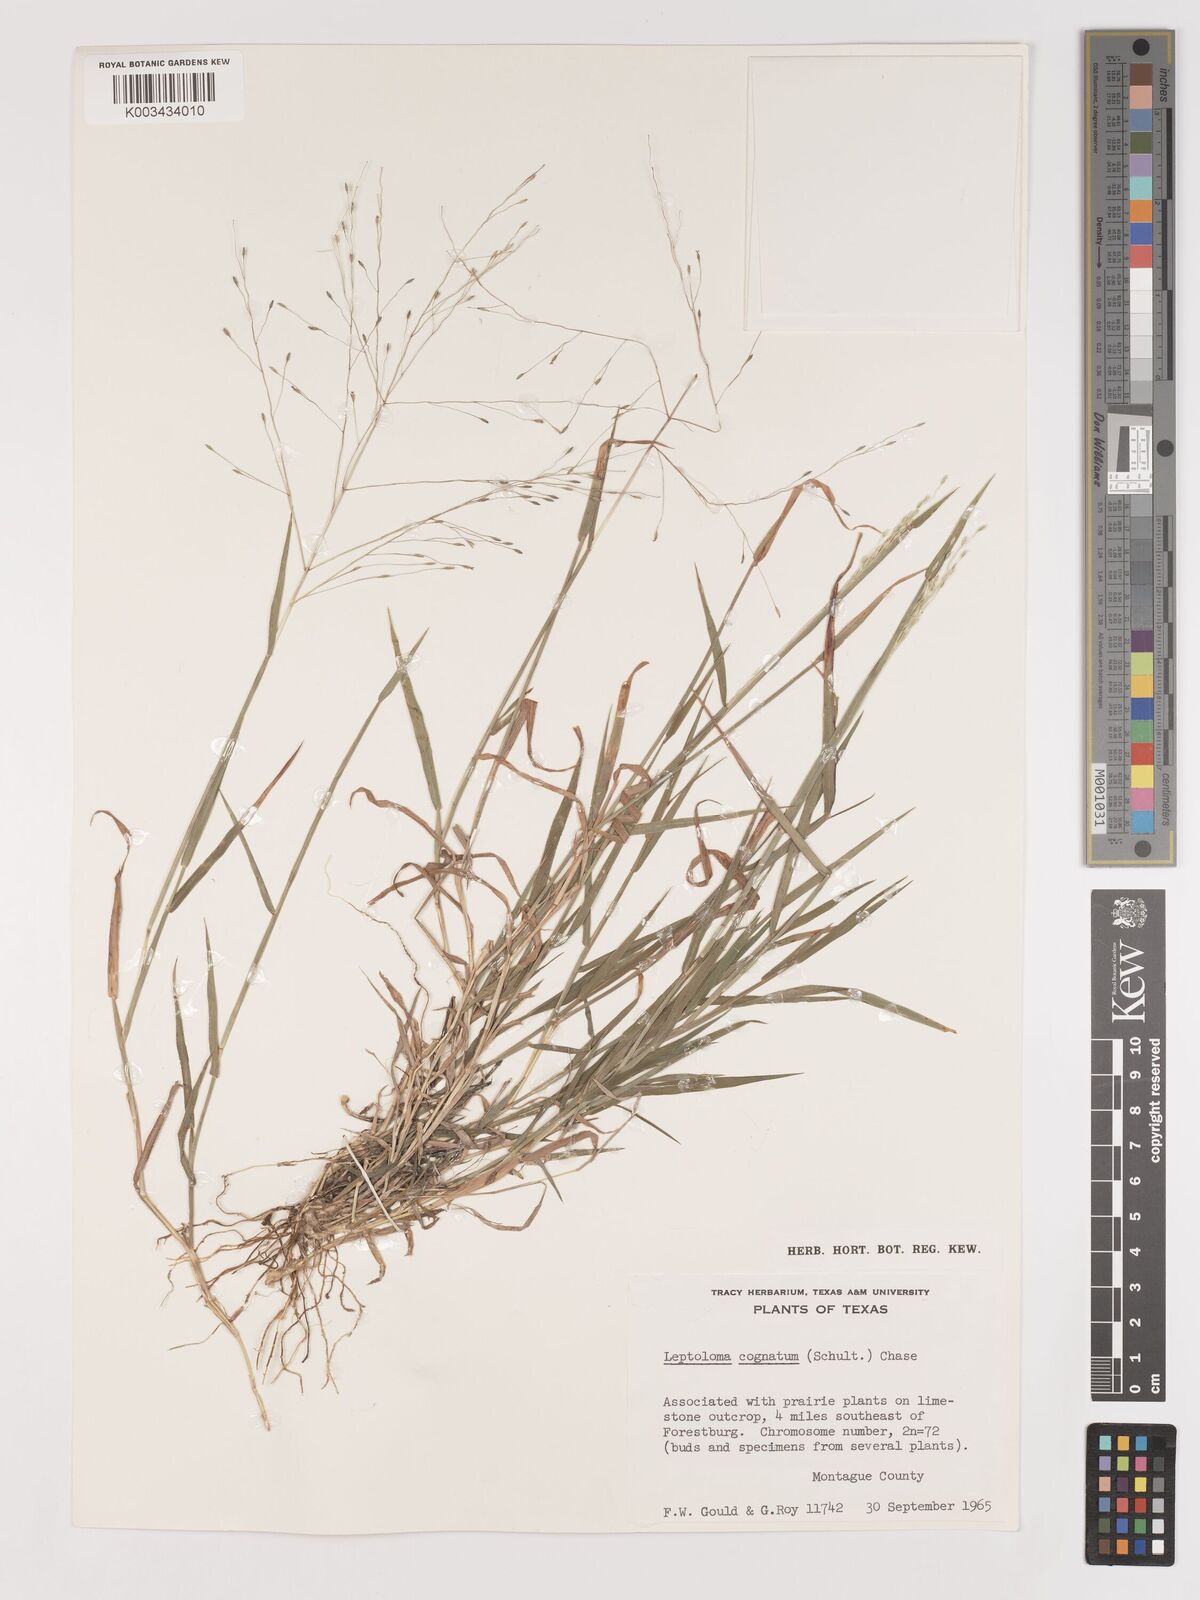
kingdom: Plantae
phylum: Tracheophyta
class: Liliopsida
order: Poales
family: Poaceae
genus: Digitaria
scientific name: Digitaria cognata
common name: Fall witchgrass
